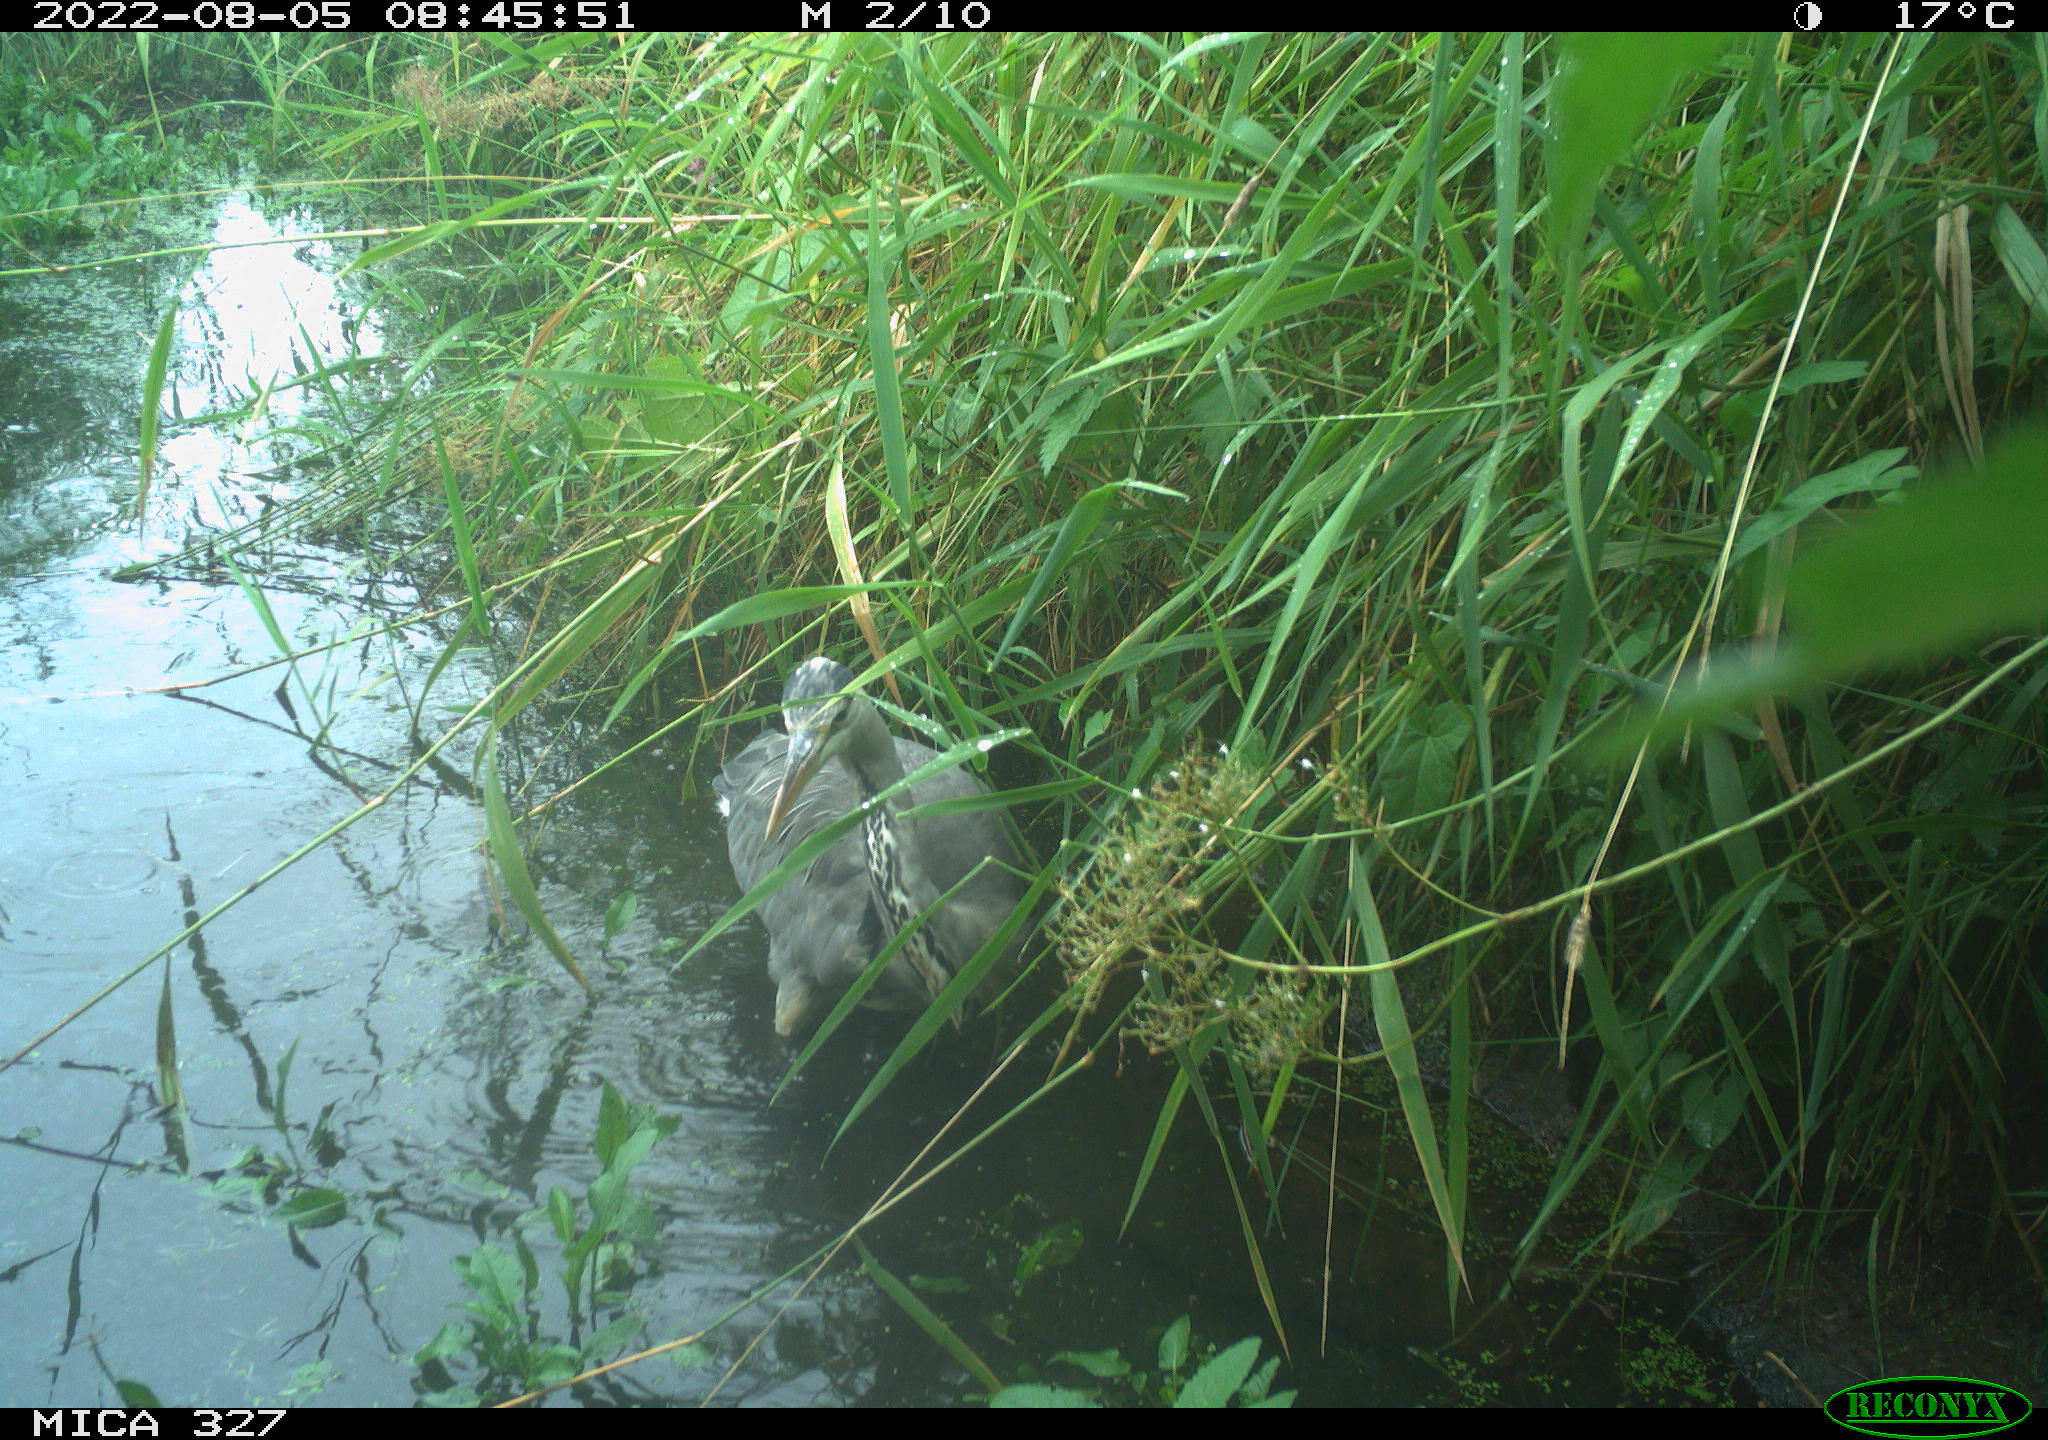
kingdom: Animalia
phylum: Chordata
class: Aves
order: Pelecaniformes
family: Ardeidae
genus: Ardea
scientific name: Ardea cinerea
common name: Grey heron
